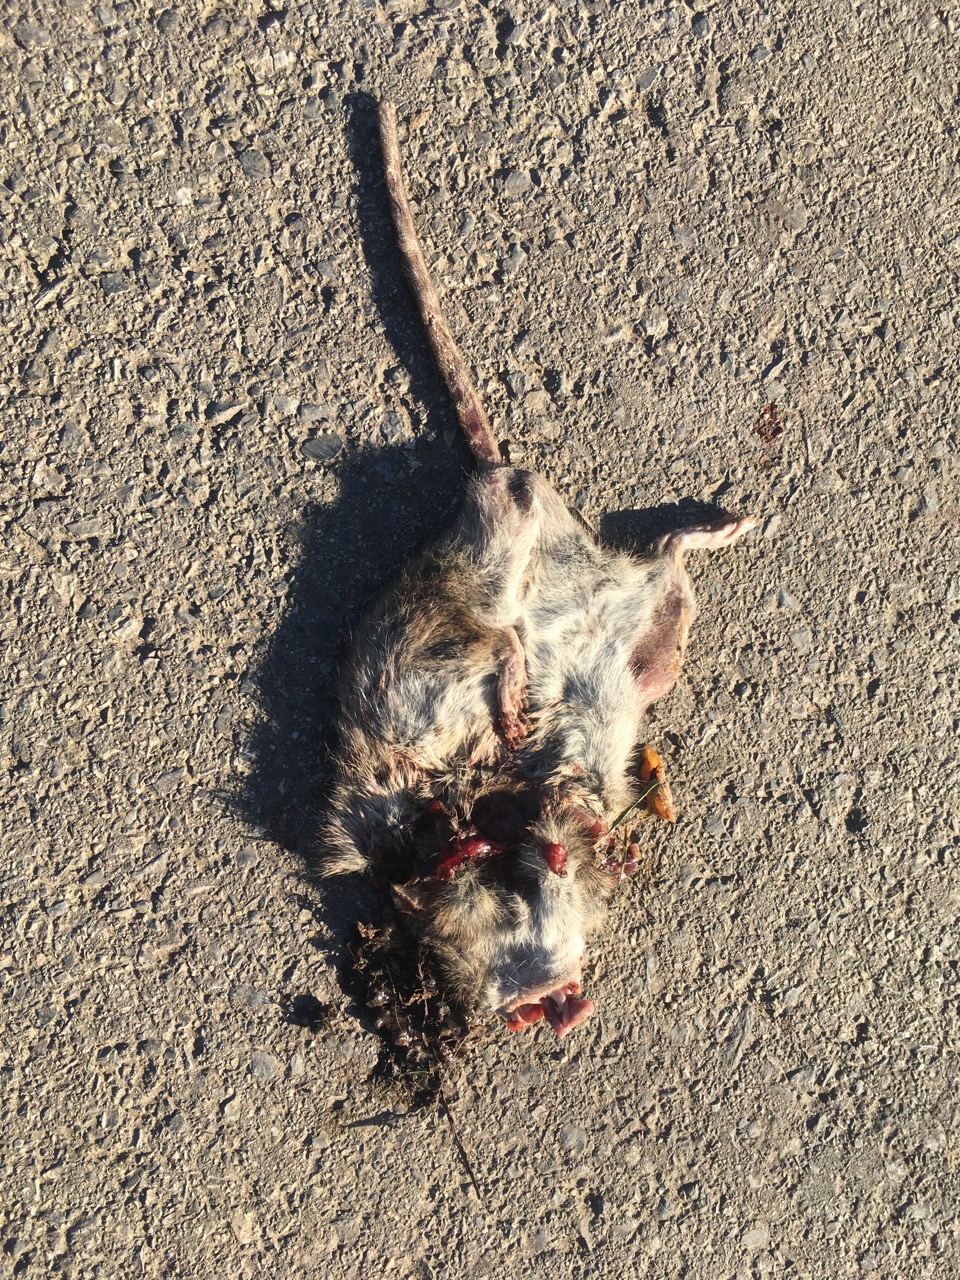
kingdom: Animalia
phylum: Chordata
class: Mammalia
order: Rodentia
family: Muridae
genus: Rattus
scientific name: Rattus
